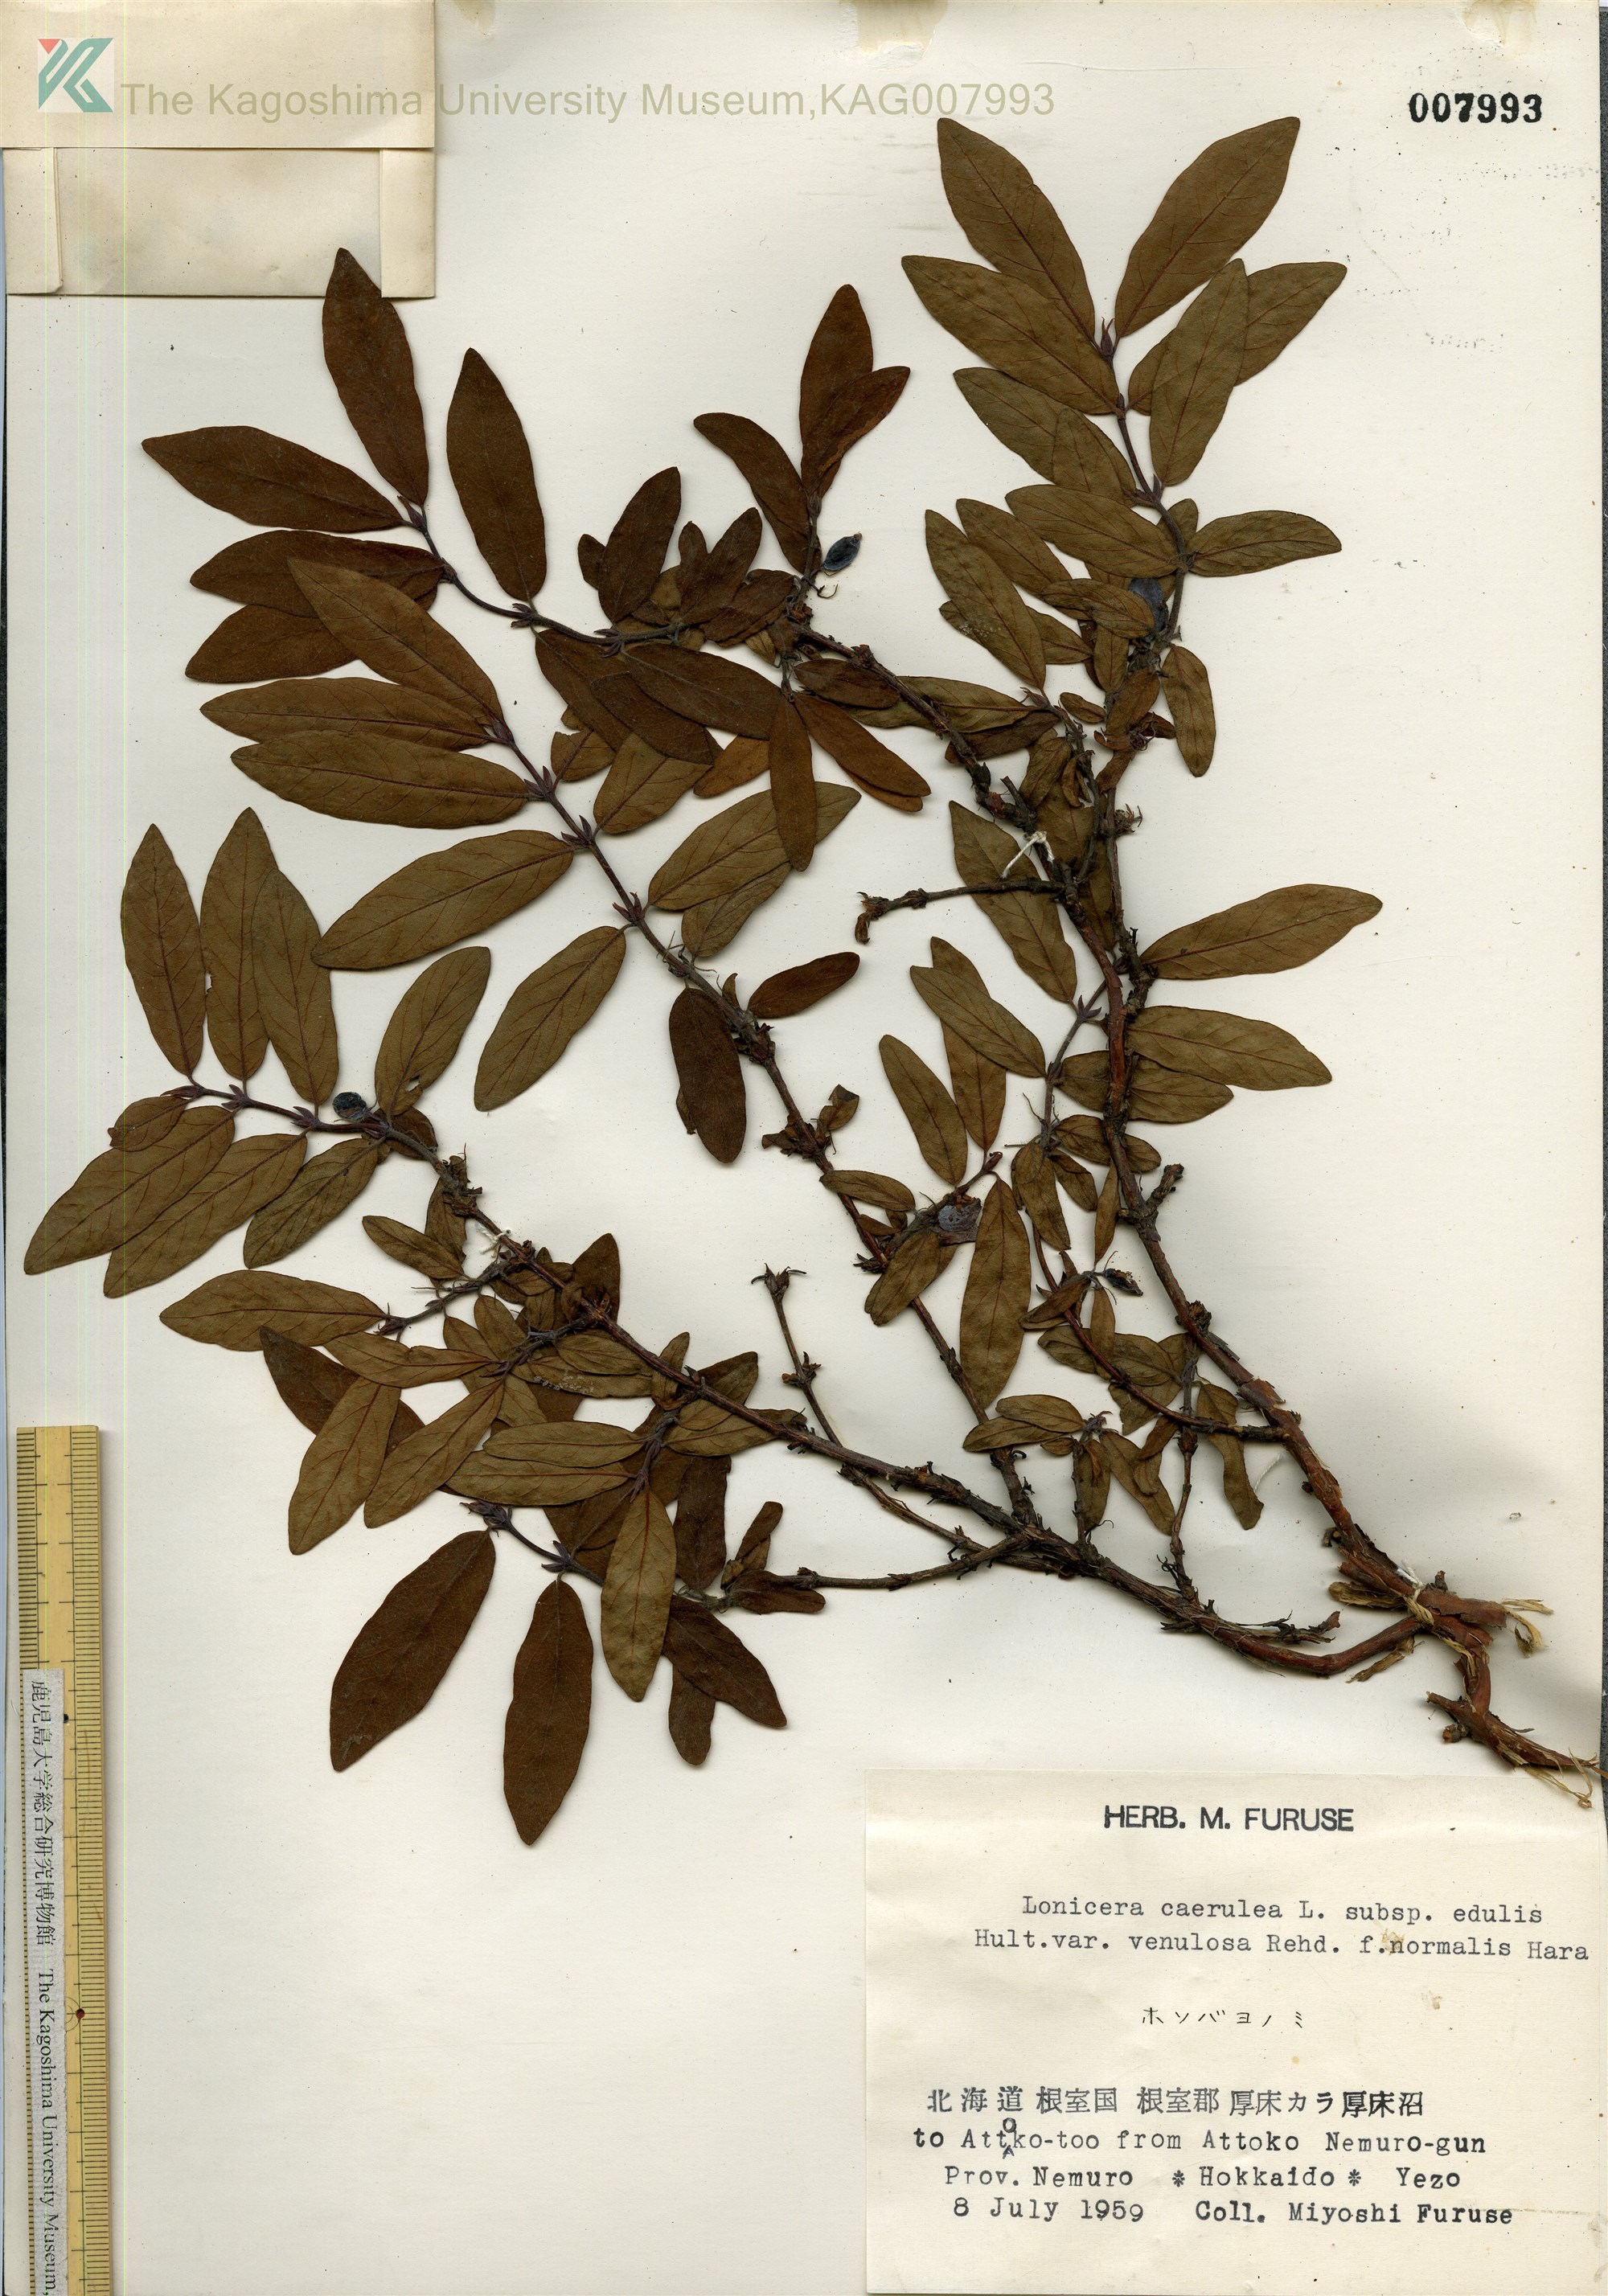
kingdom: Plantae
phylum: Tracheophyta
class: Magnoliopsida
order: Dipsacales
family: Caprifoliaceae
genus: Lonicera
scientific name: Lonicera caerulea
